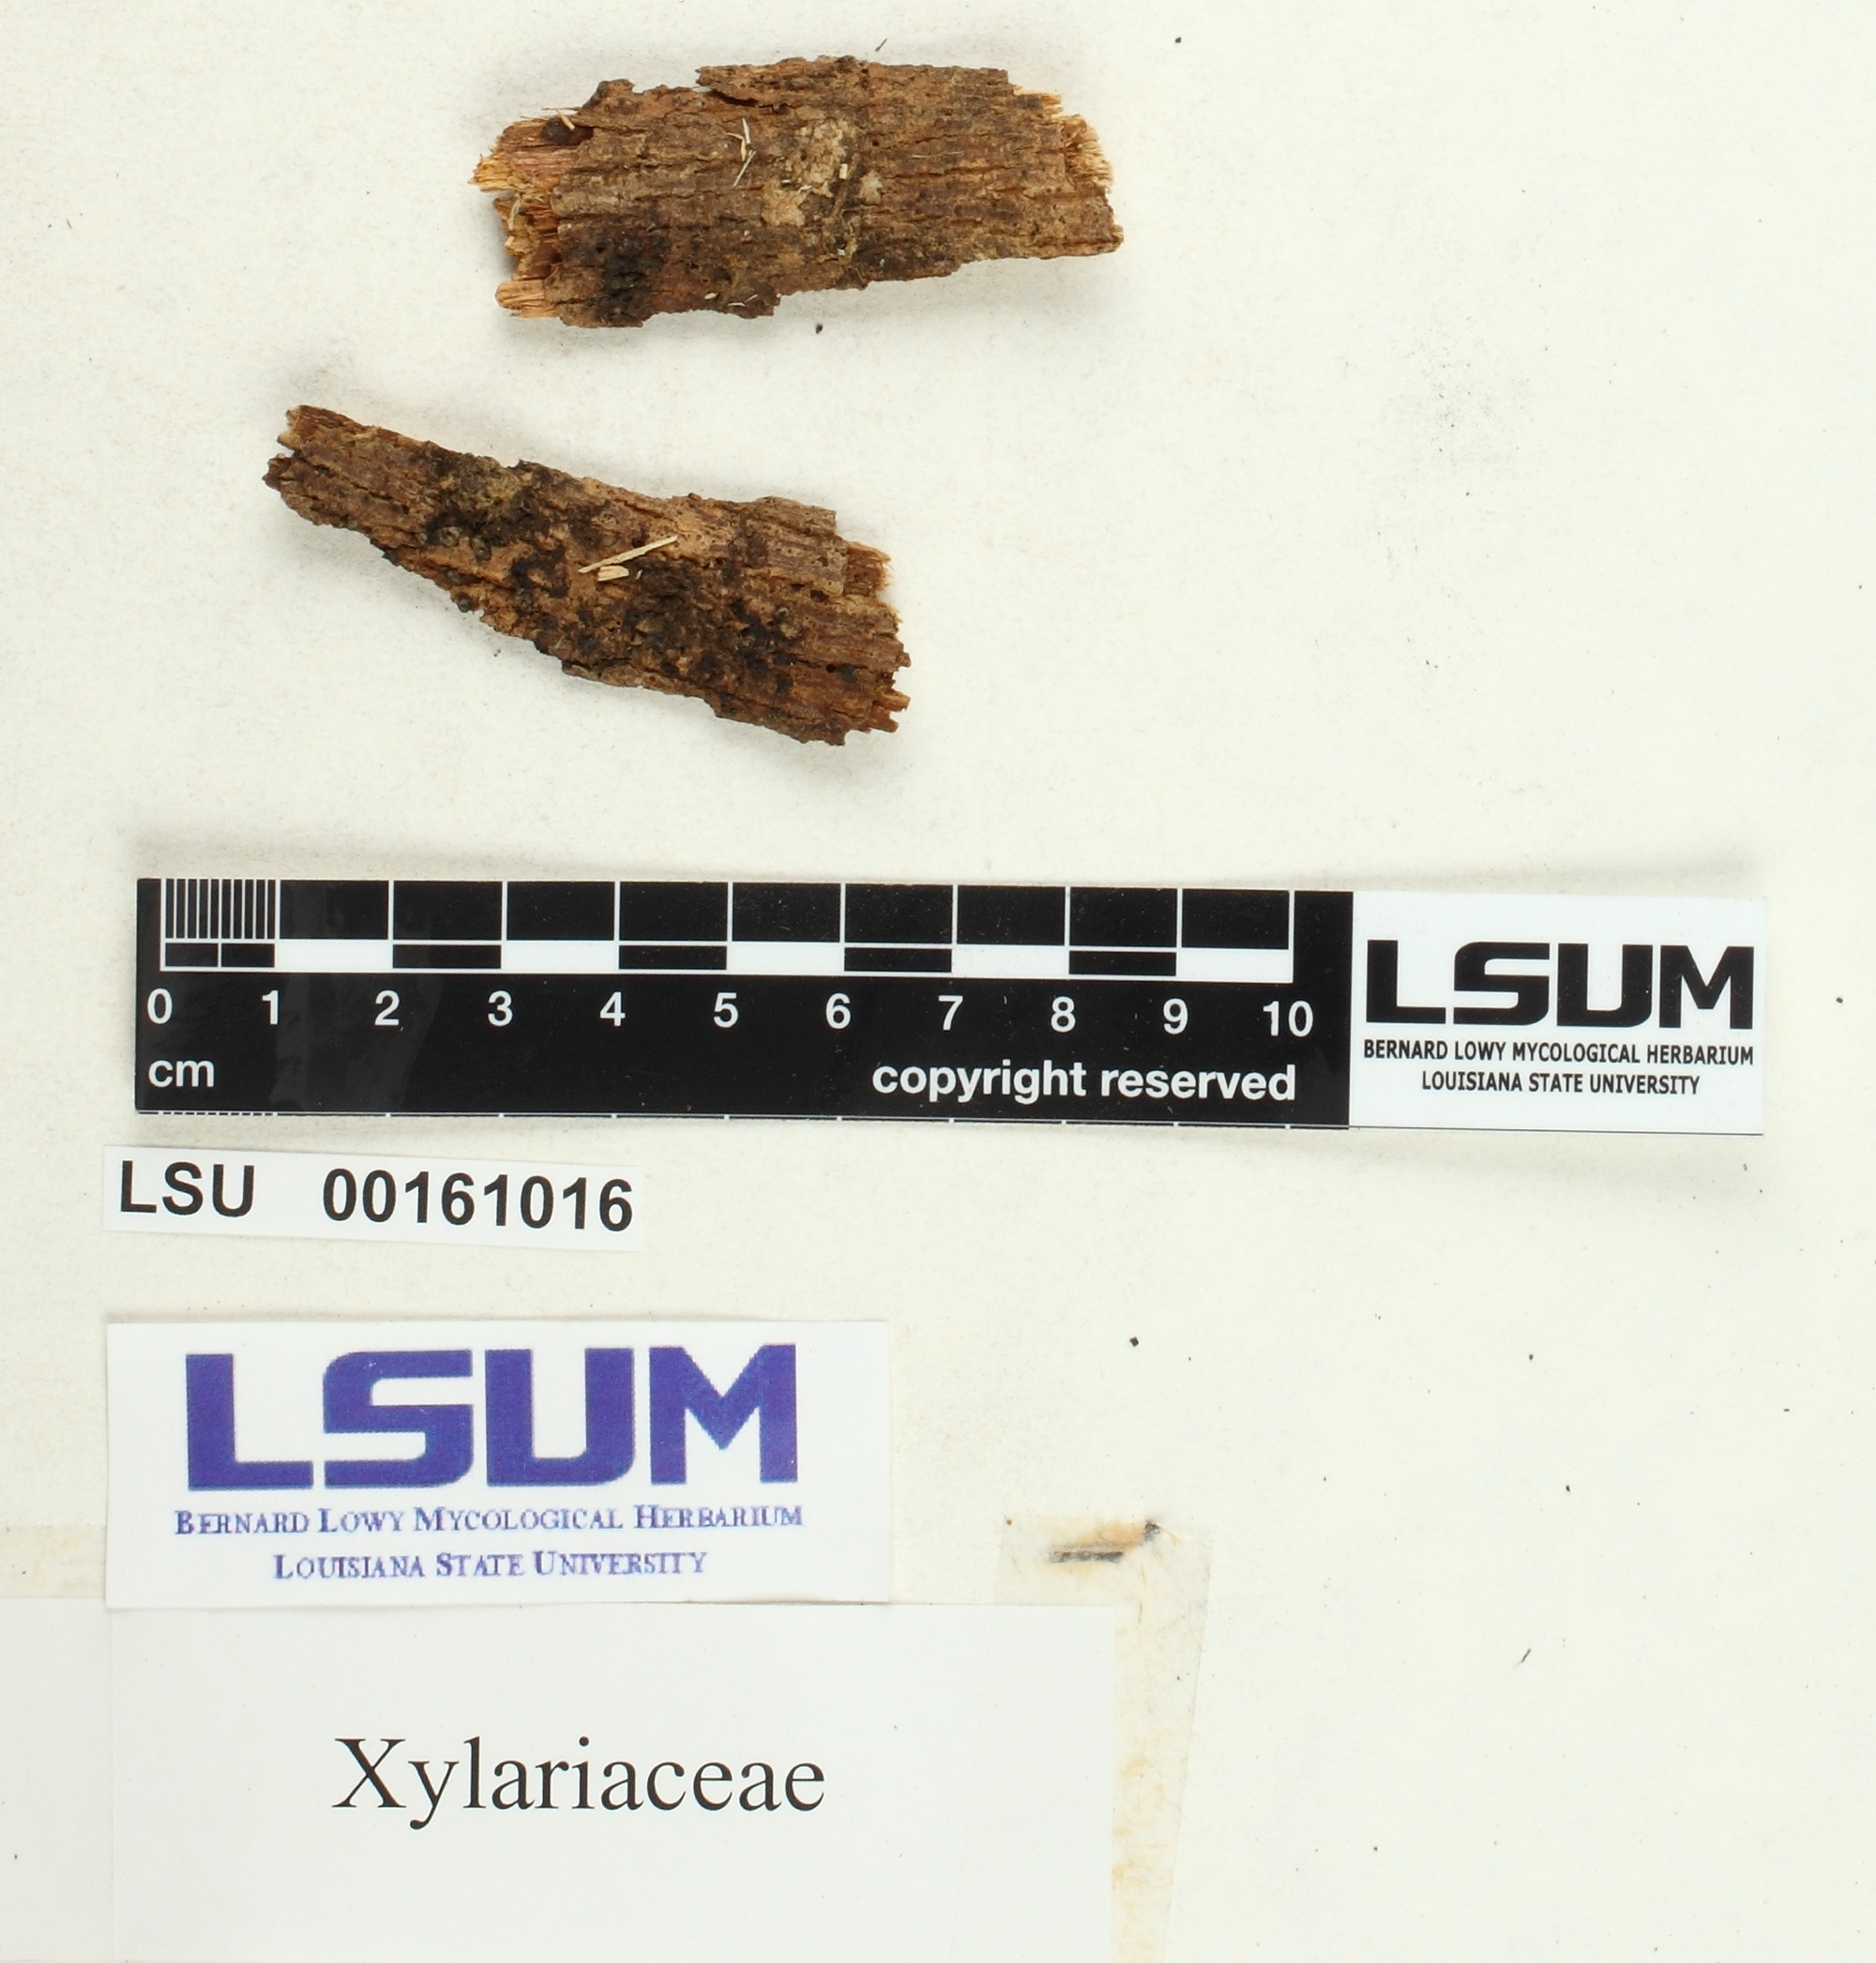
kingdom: Fungi
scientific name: Fungi
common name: Fungi
